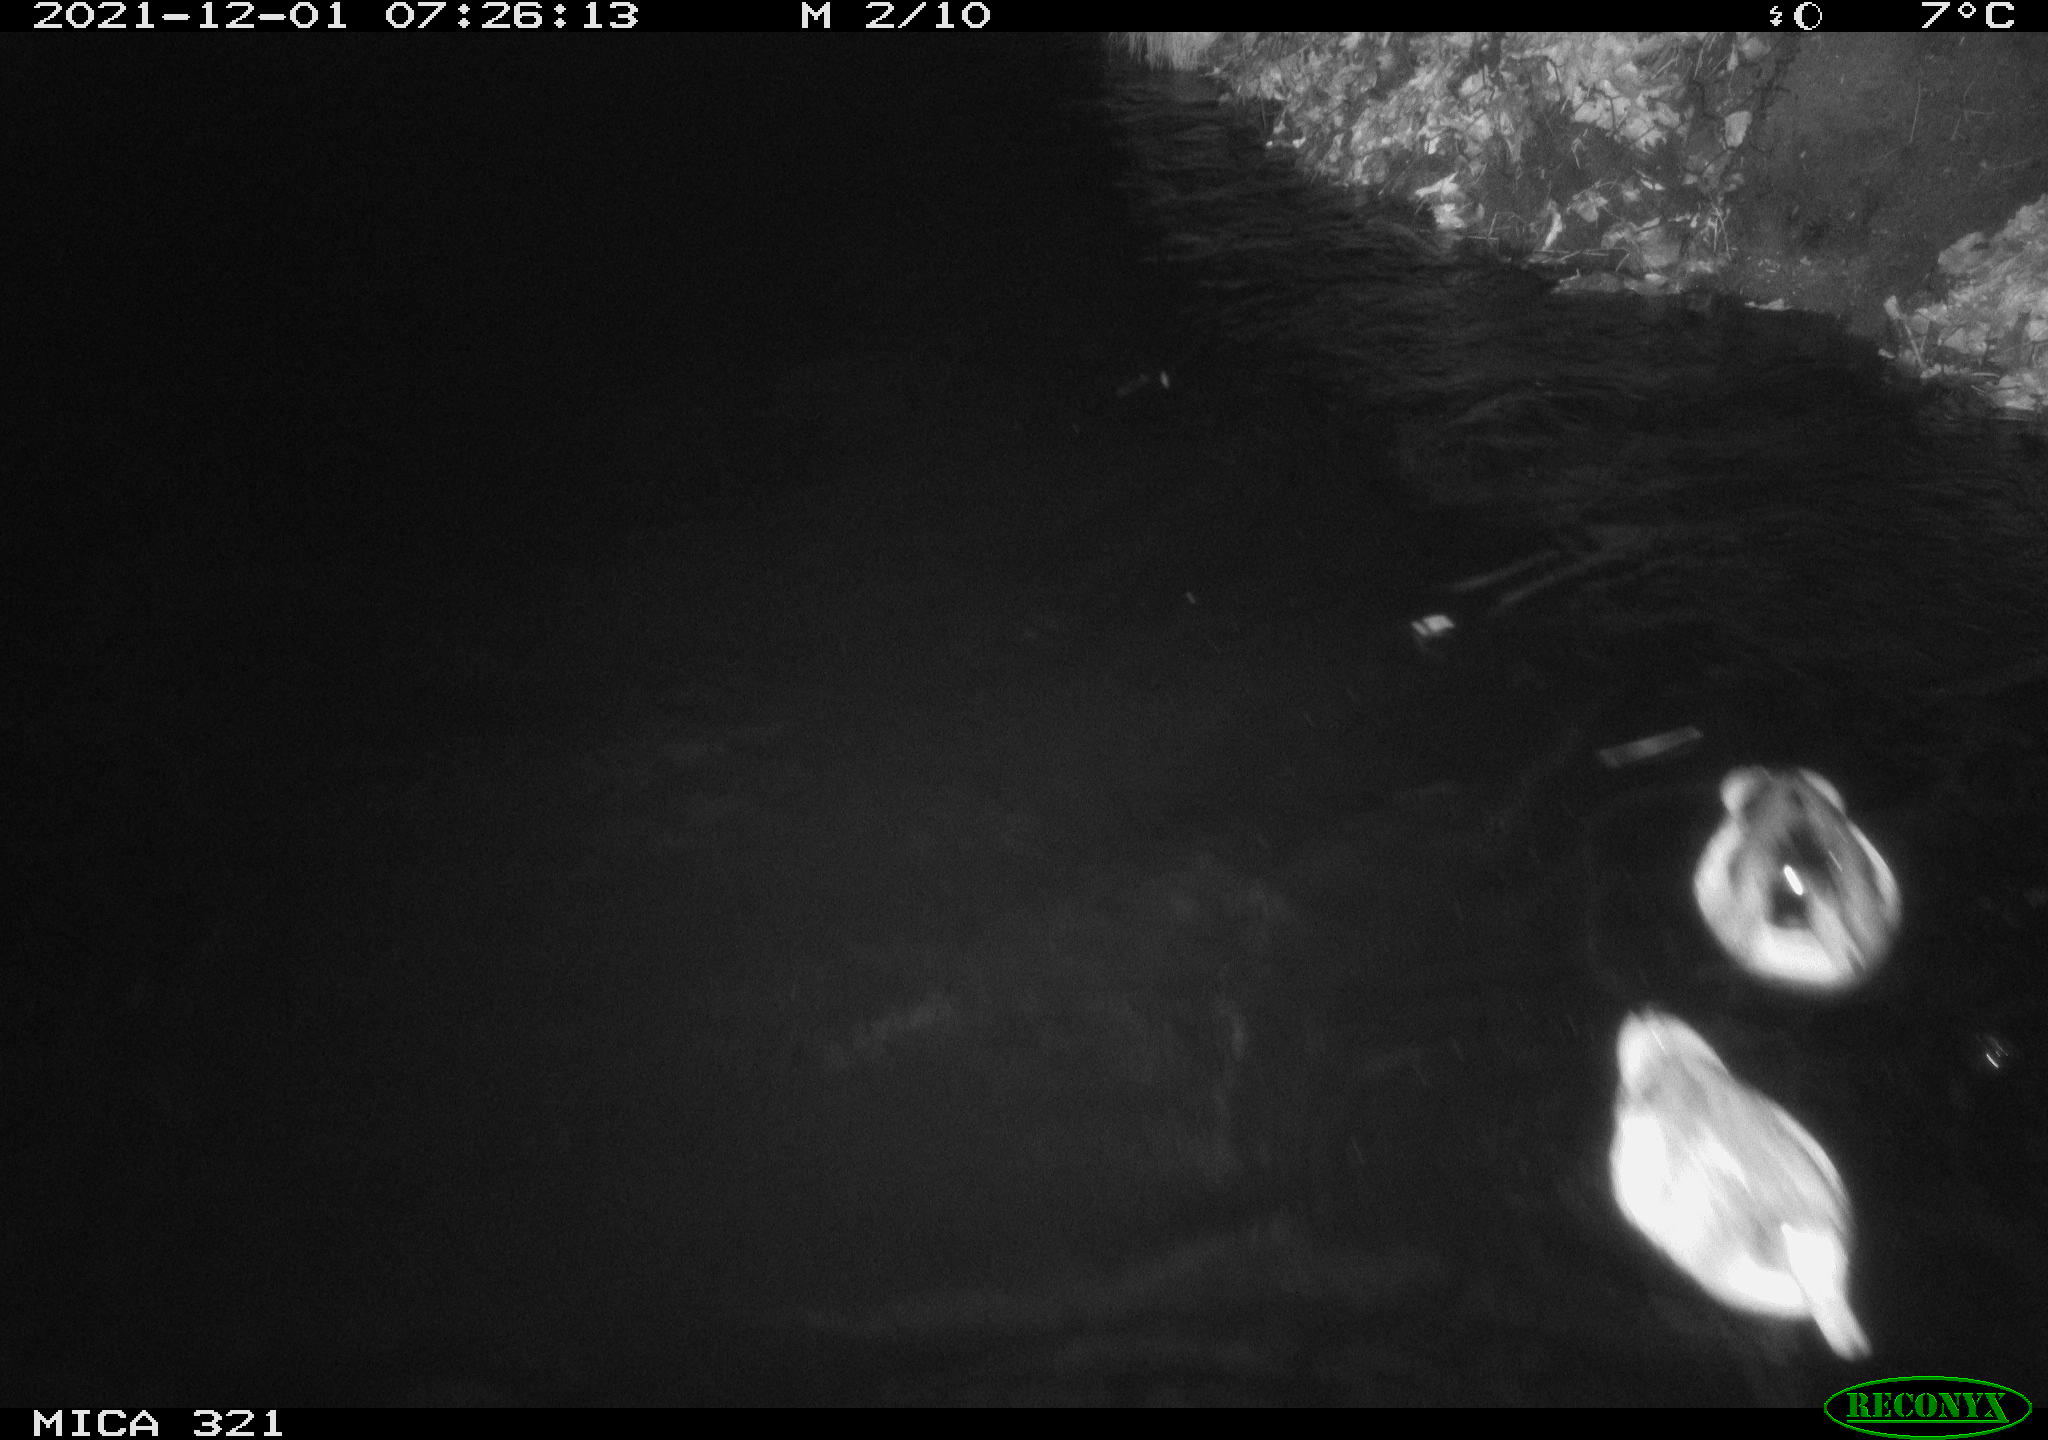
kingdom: Animalia
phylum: Chordata
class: Aves
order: Anseriformes
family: Anatidae
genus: Anas
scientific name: Anas platyrhynchos
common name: Mallard
